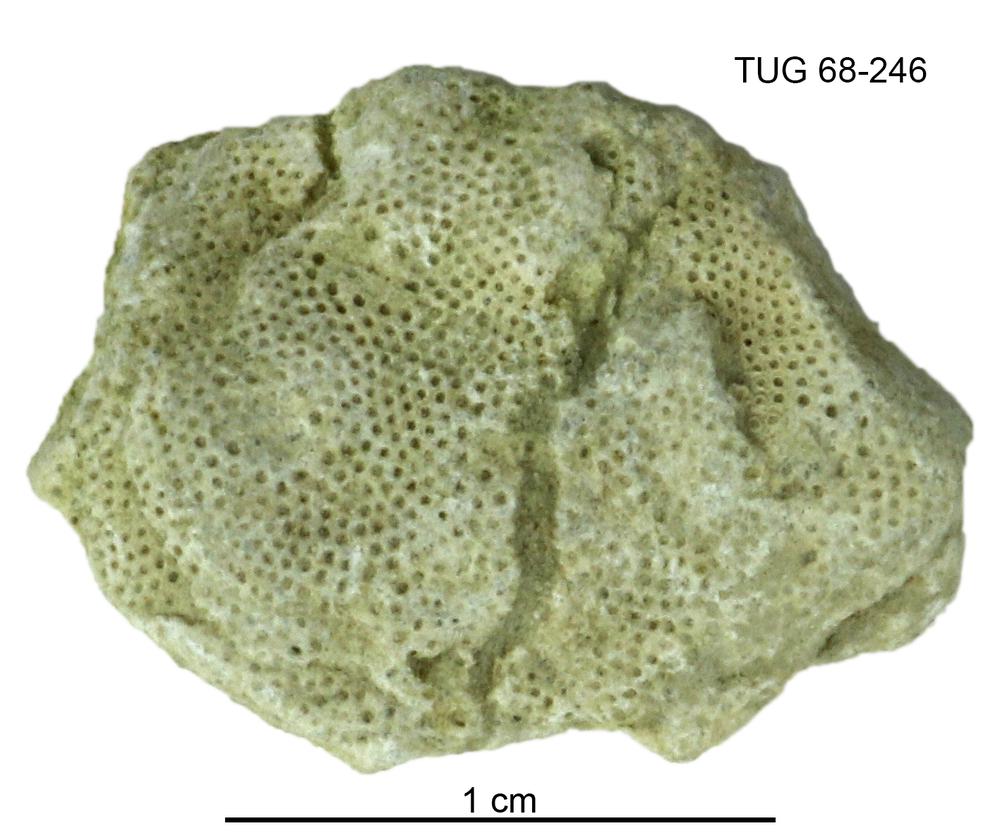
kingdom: Animalia
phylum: Bryozoa
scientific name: Bryozoa
